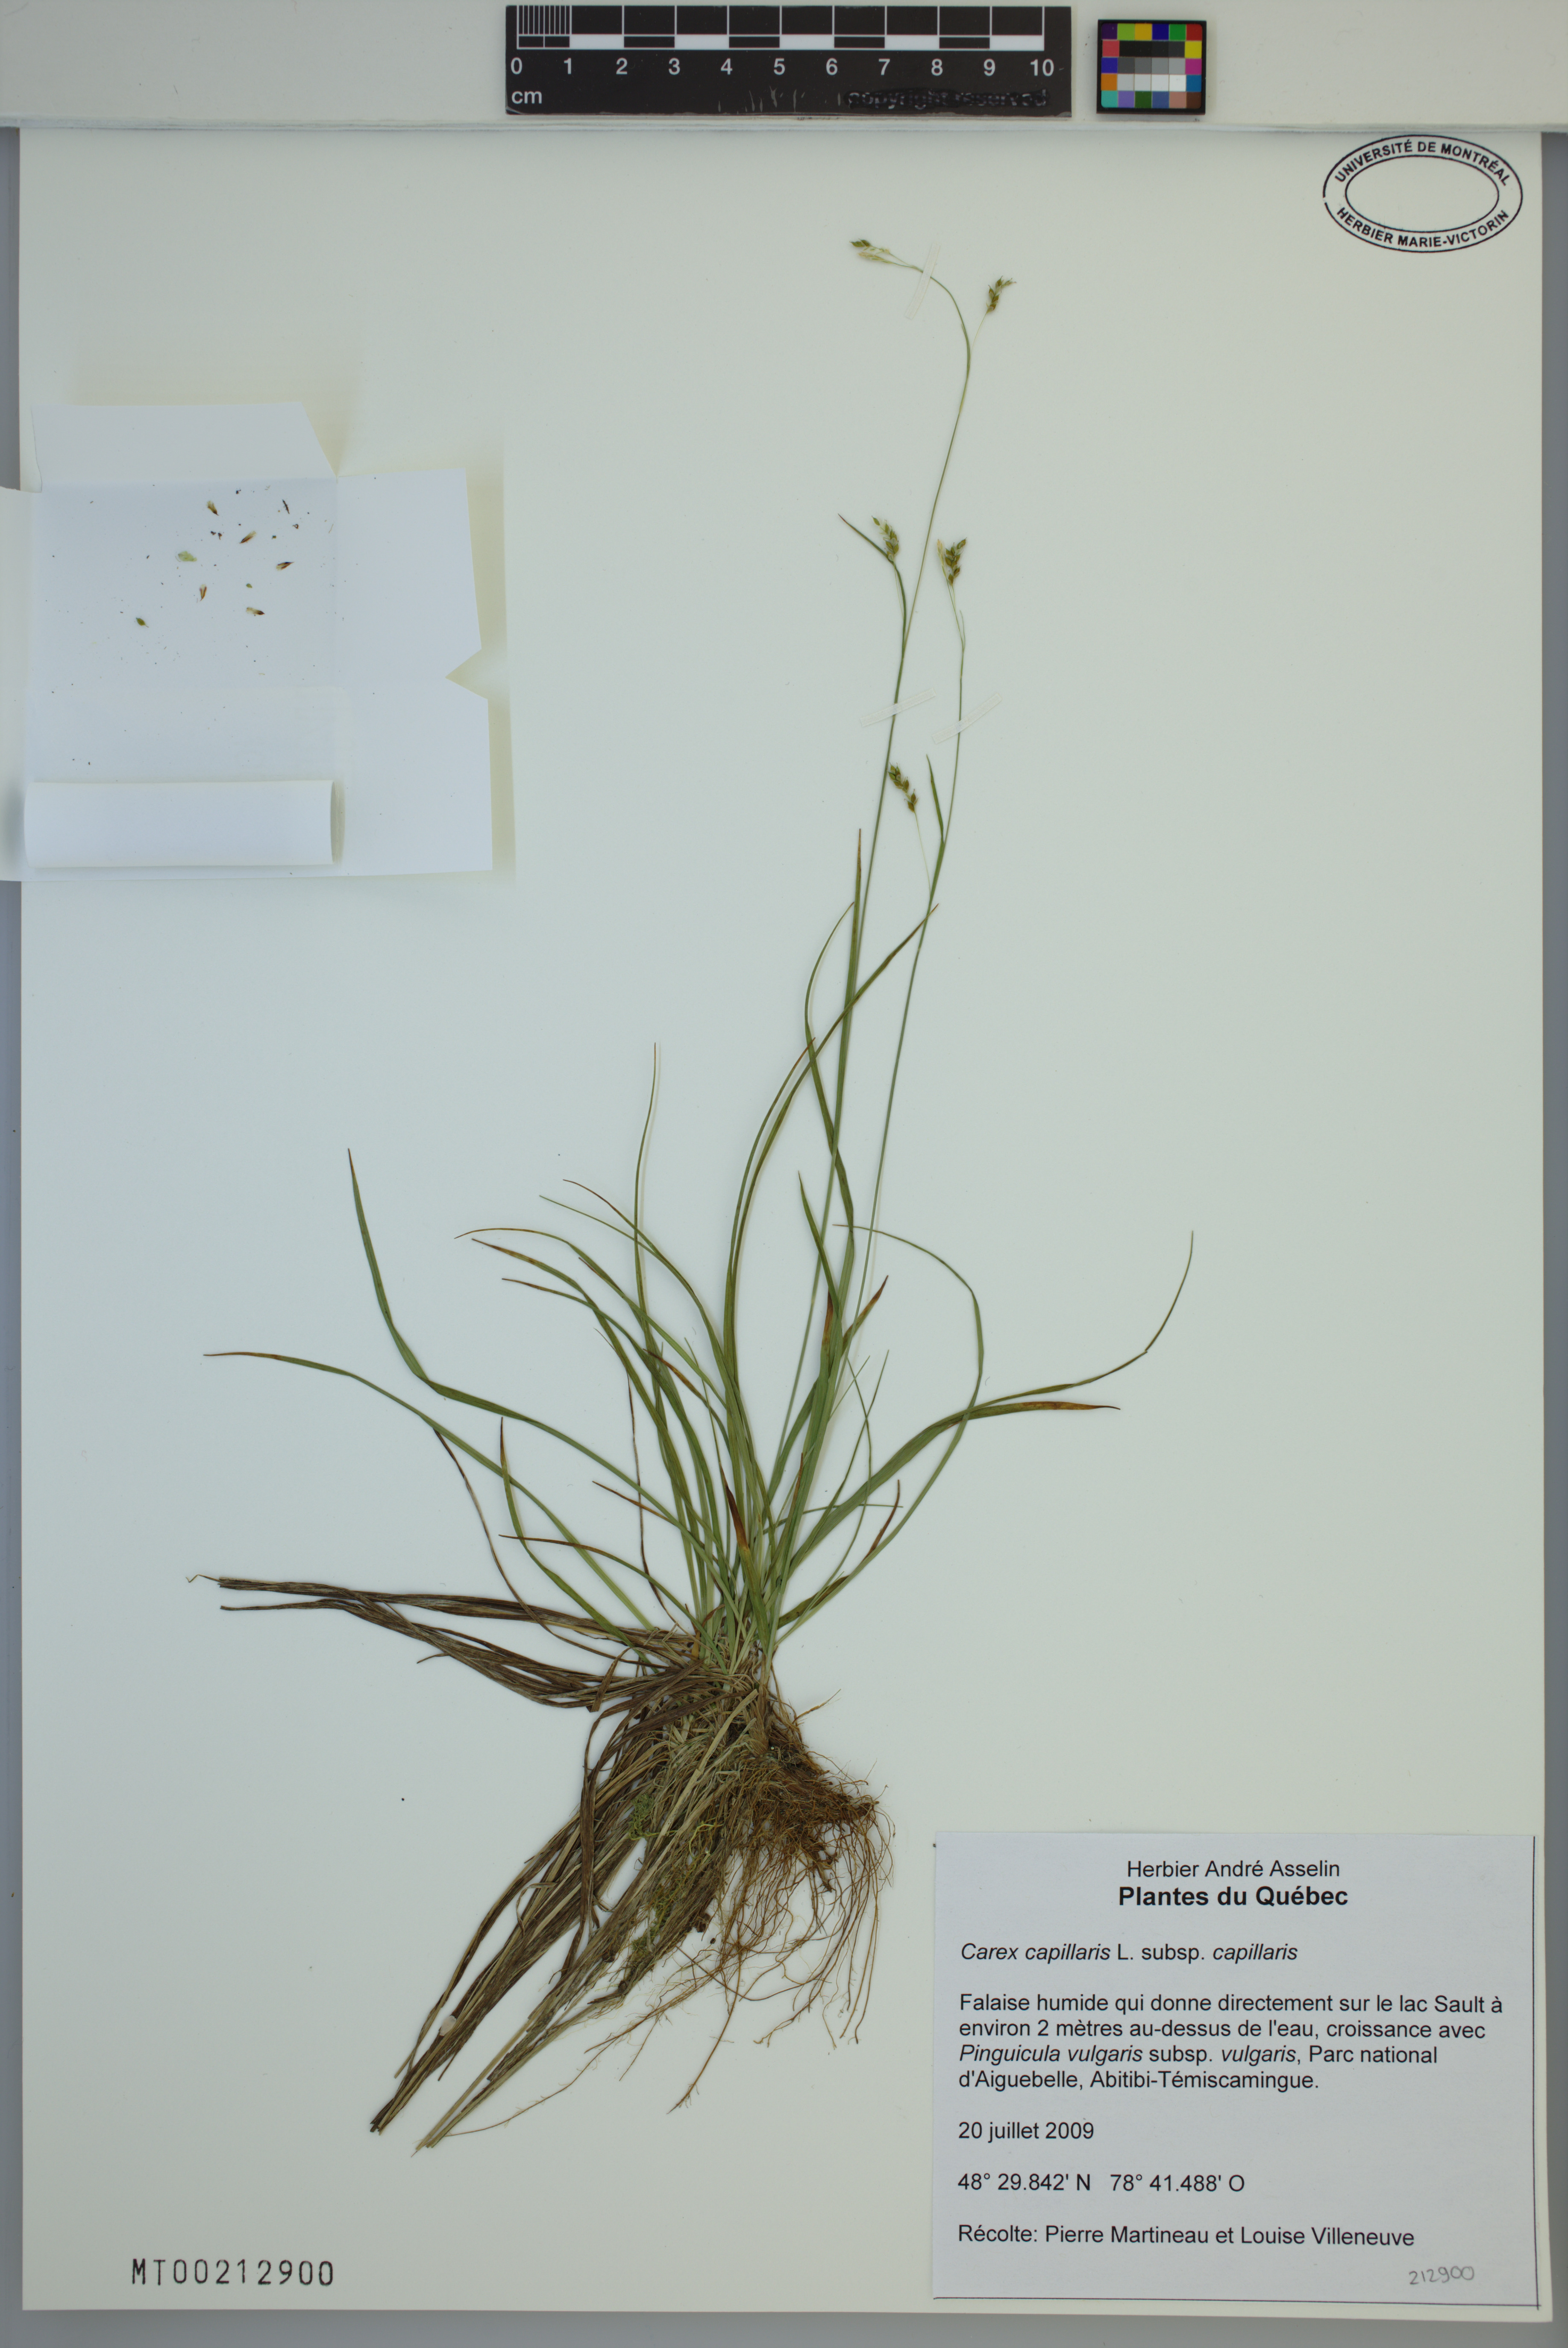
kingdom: Plantae
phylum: Tracheophyta
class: Liliopsida
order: Poales
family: Cyperaceae
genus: Carex
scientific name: Carex capillaris
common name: Hair sedge
